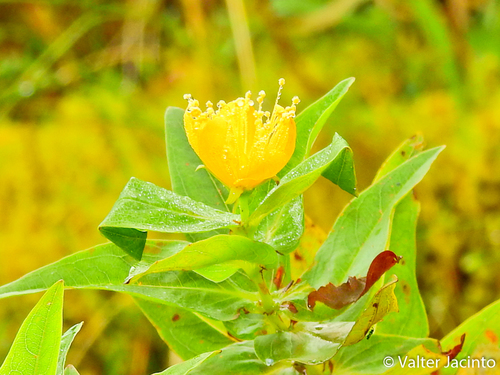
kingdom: Plantae
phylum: Tracheophyta
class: Magnoliopsida
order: Malpighiales
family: Hypericaceae
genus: Hypericum
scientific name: Hypericum foliosum
